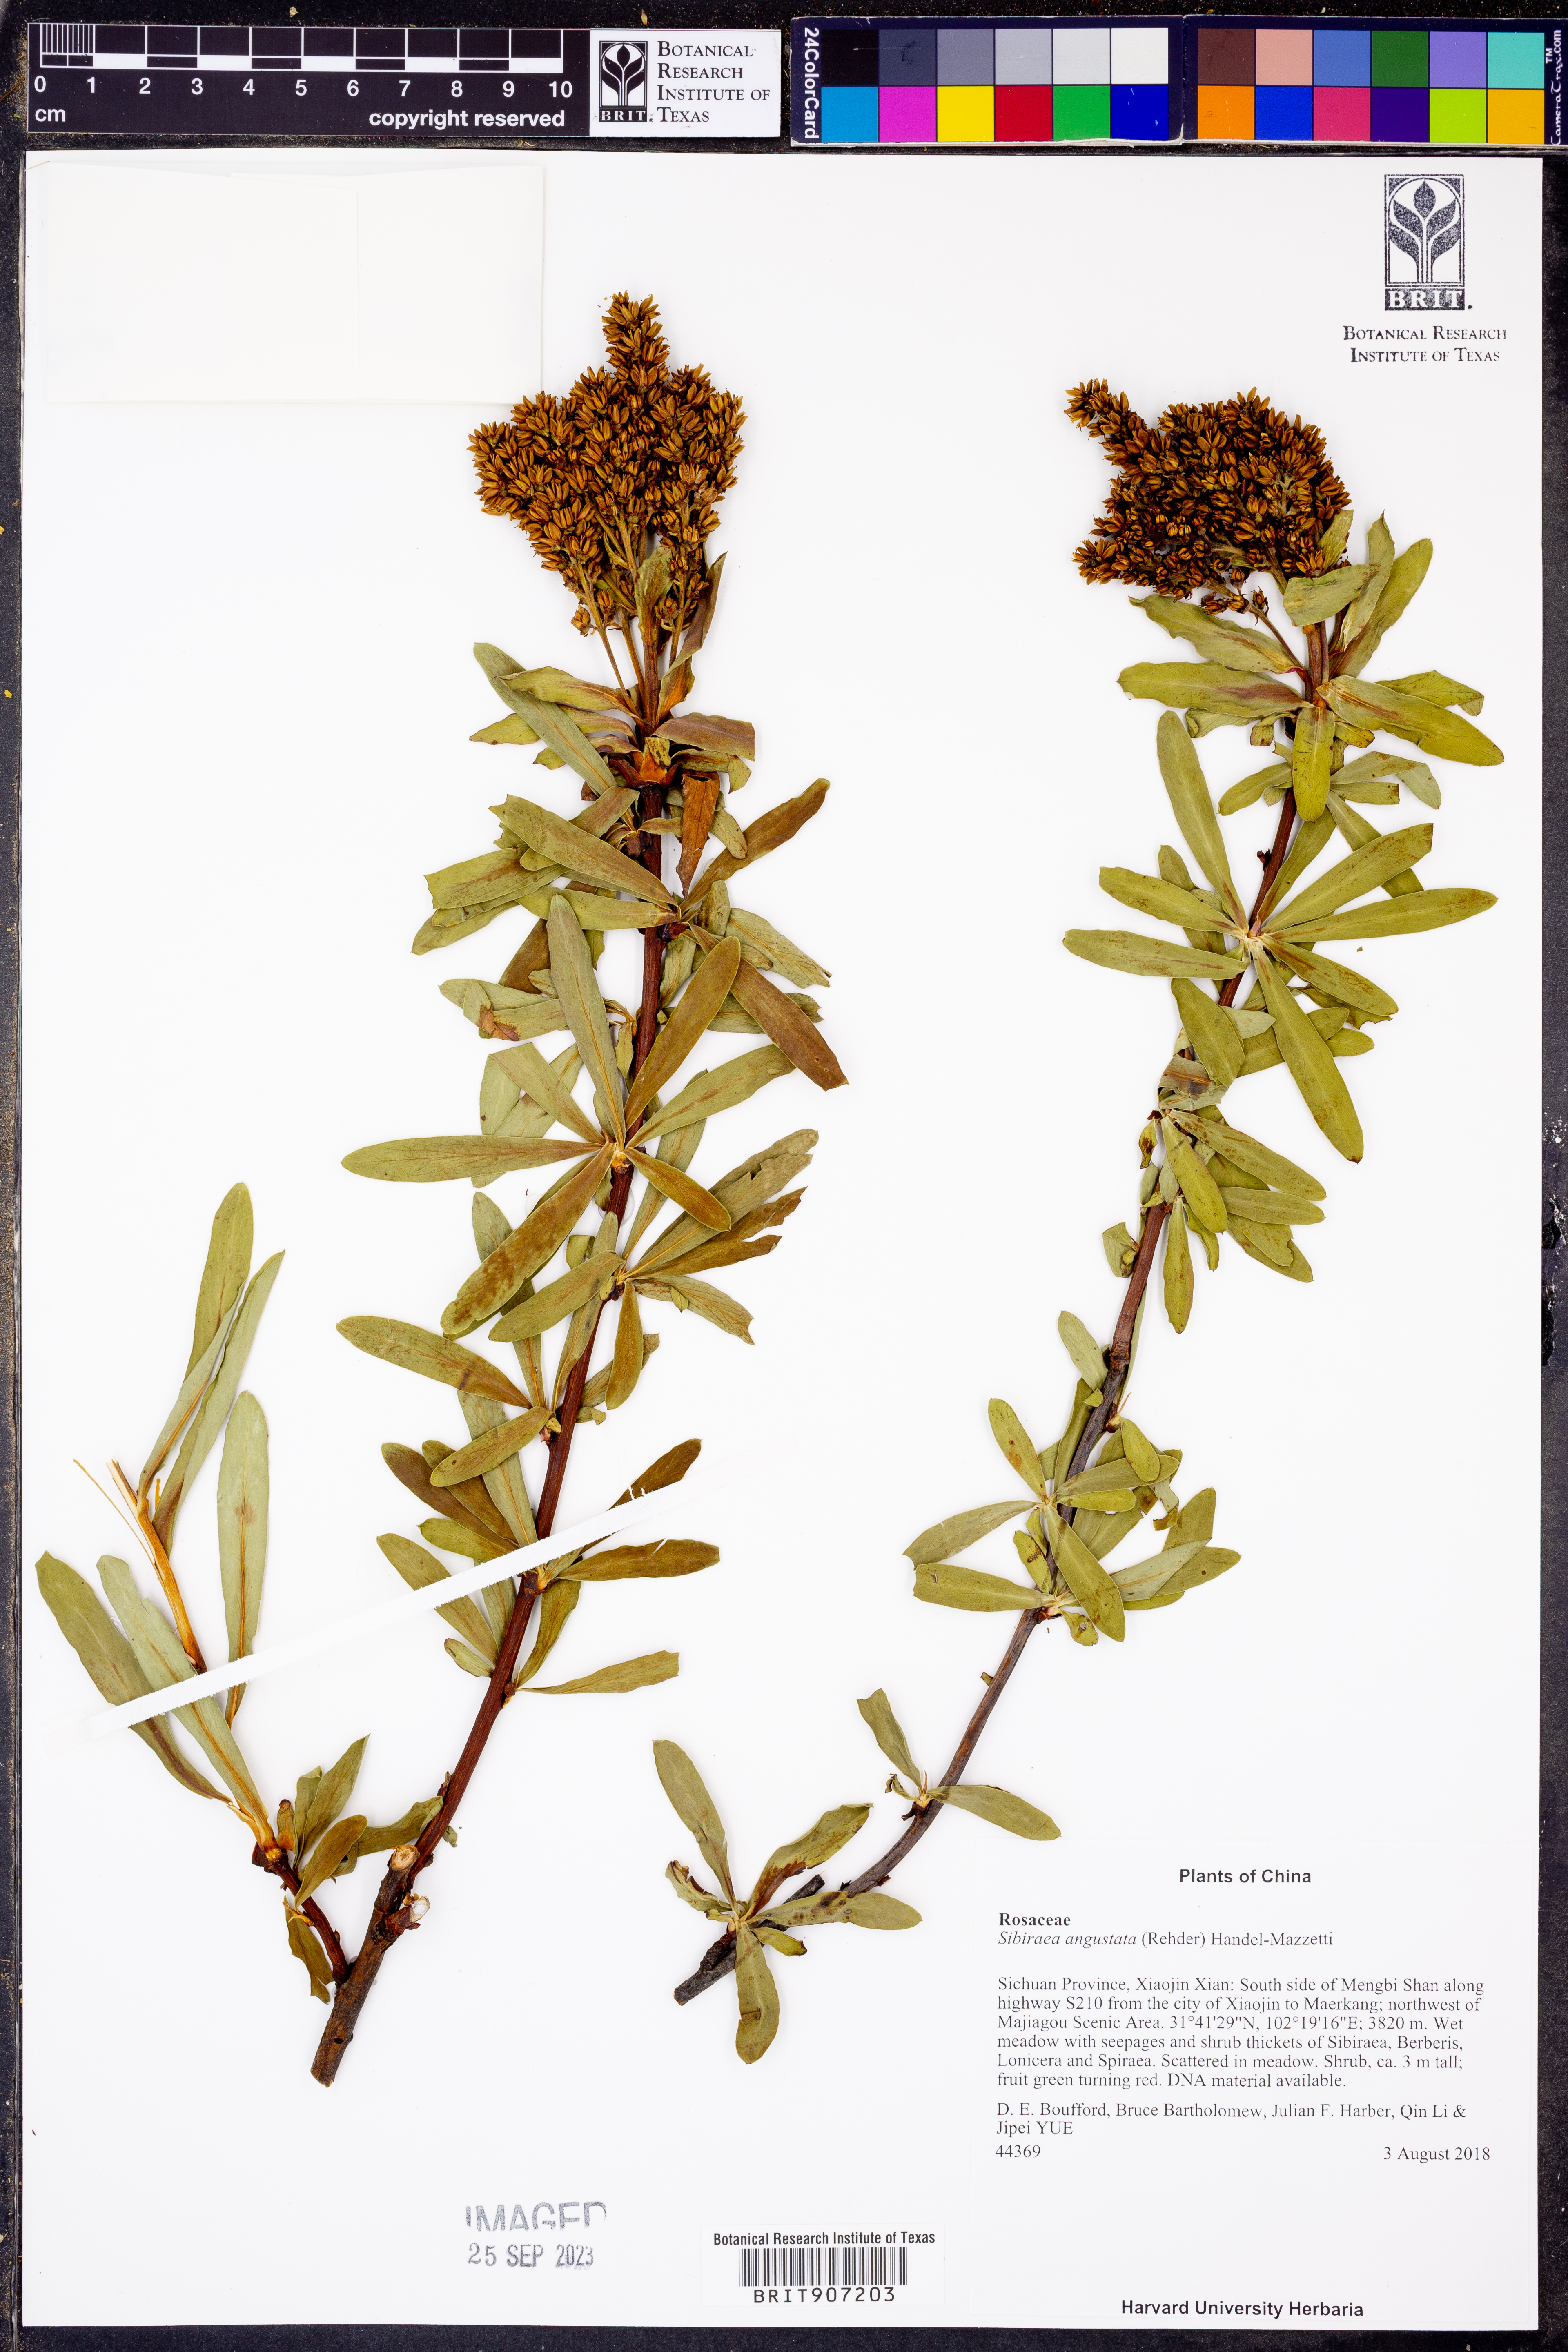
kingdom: Plantae
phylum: Tracheophyta
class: Magnoliopsida
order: Rosales
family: Rosaceae
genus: Sibiraea
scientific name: Sibiraea angustata
